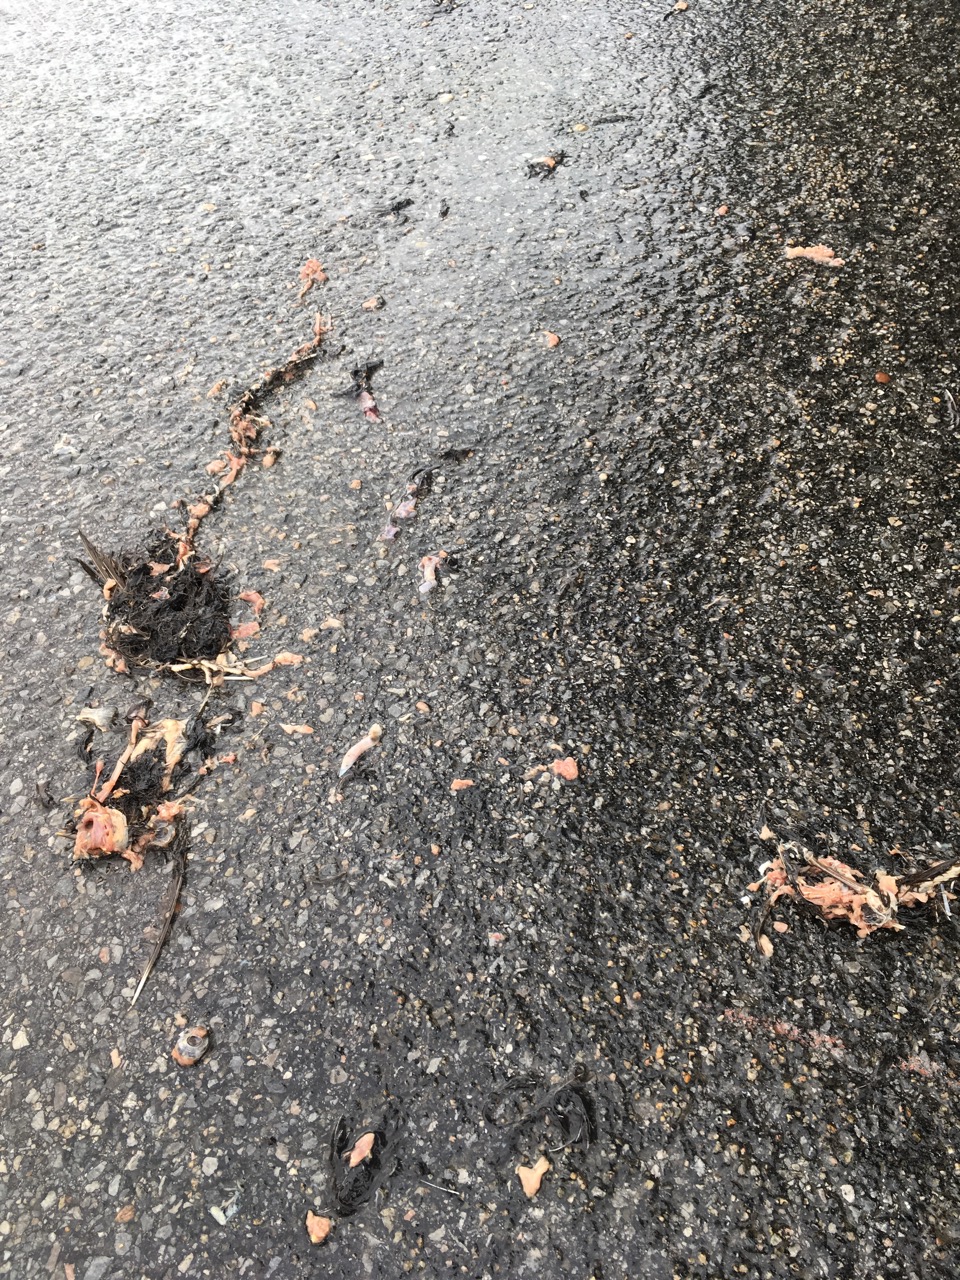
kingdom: Animalia
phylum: Chordata
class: Aves
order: Passeriformes
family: Turdidae
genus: Turdus
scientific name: Turdus merula
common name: Common blackbird
